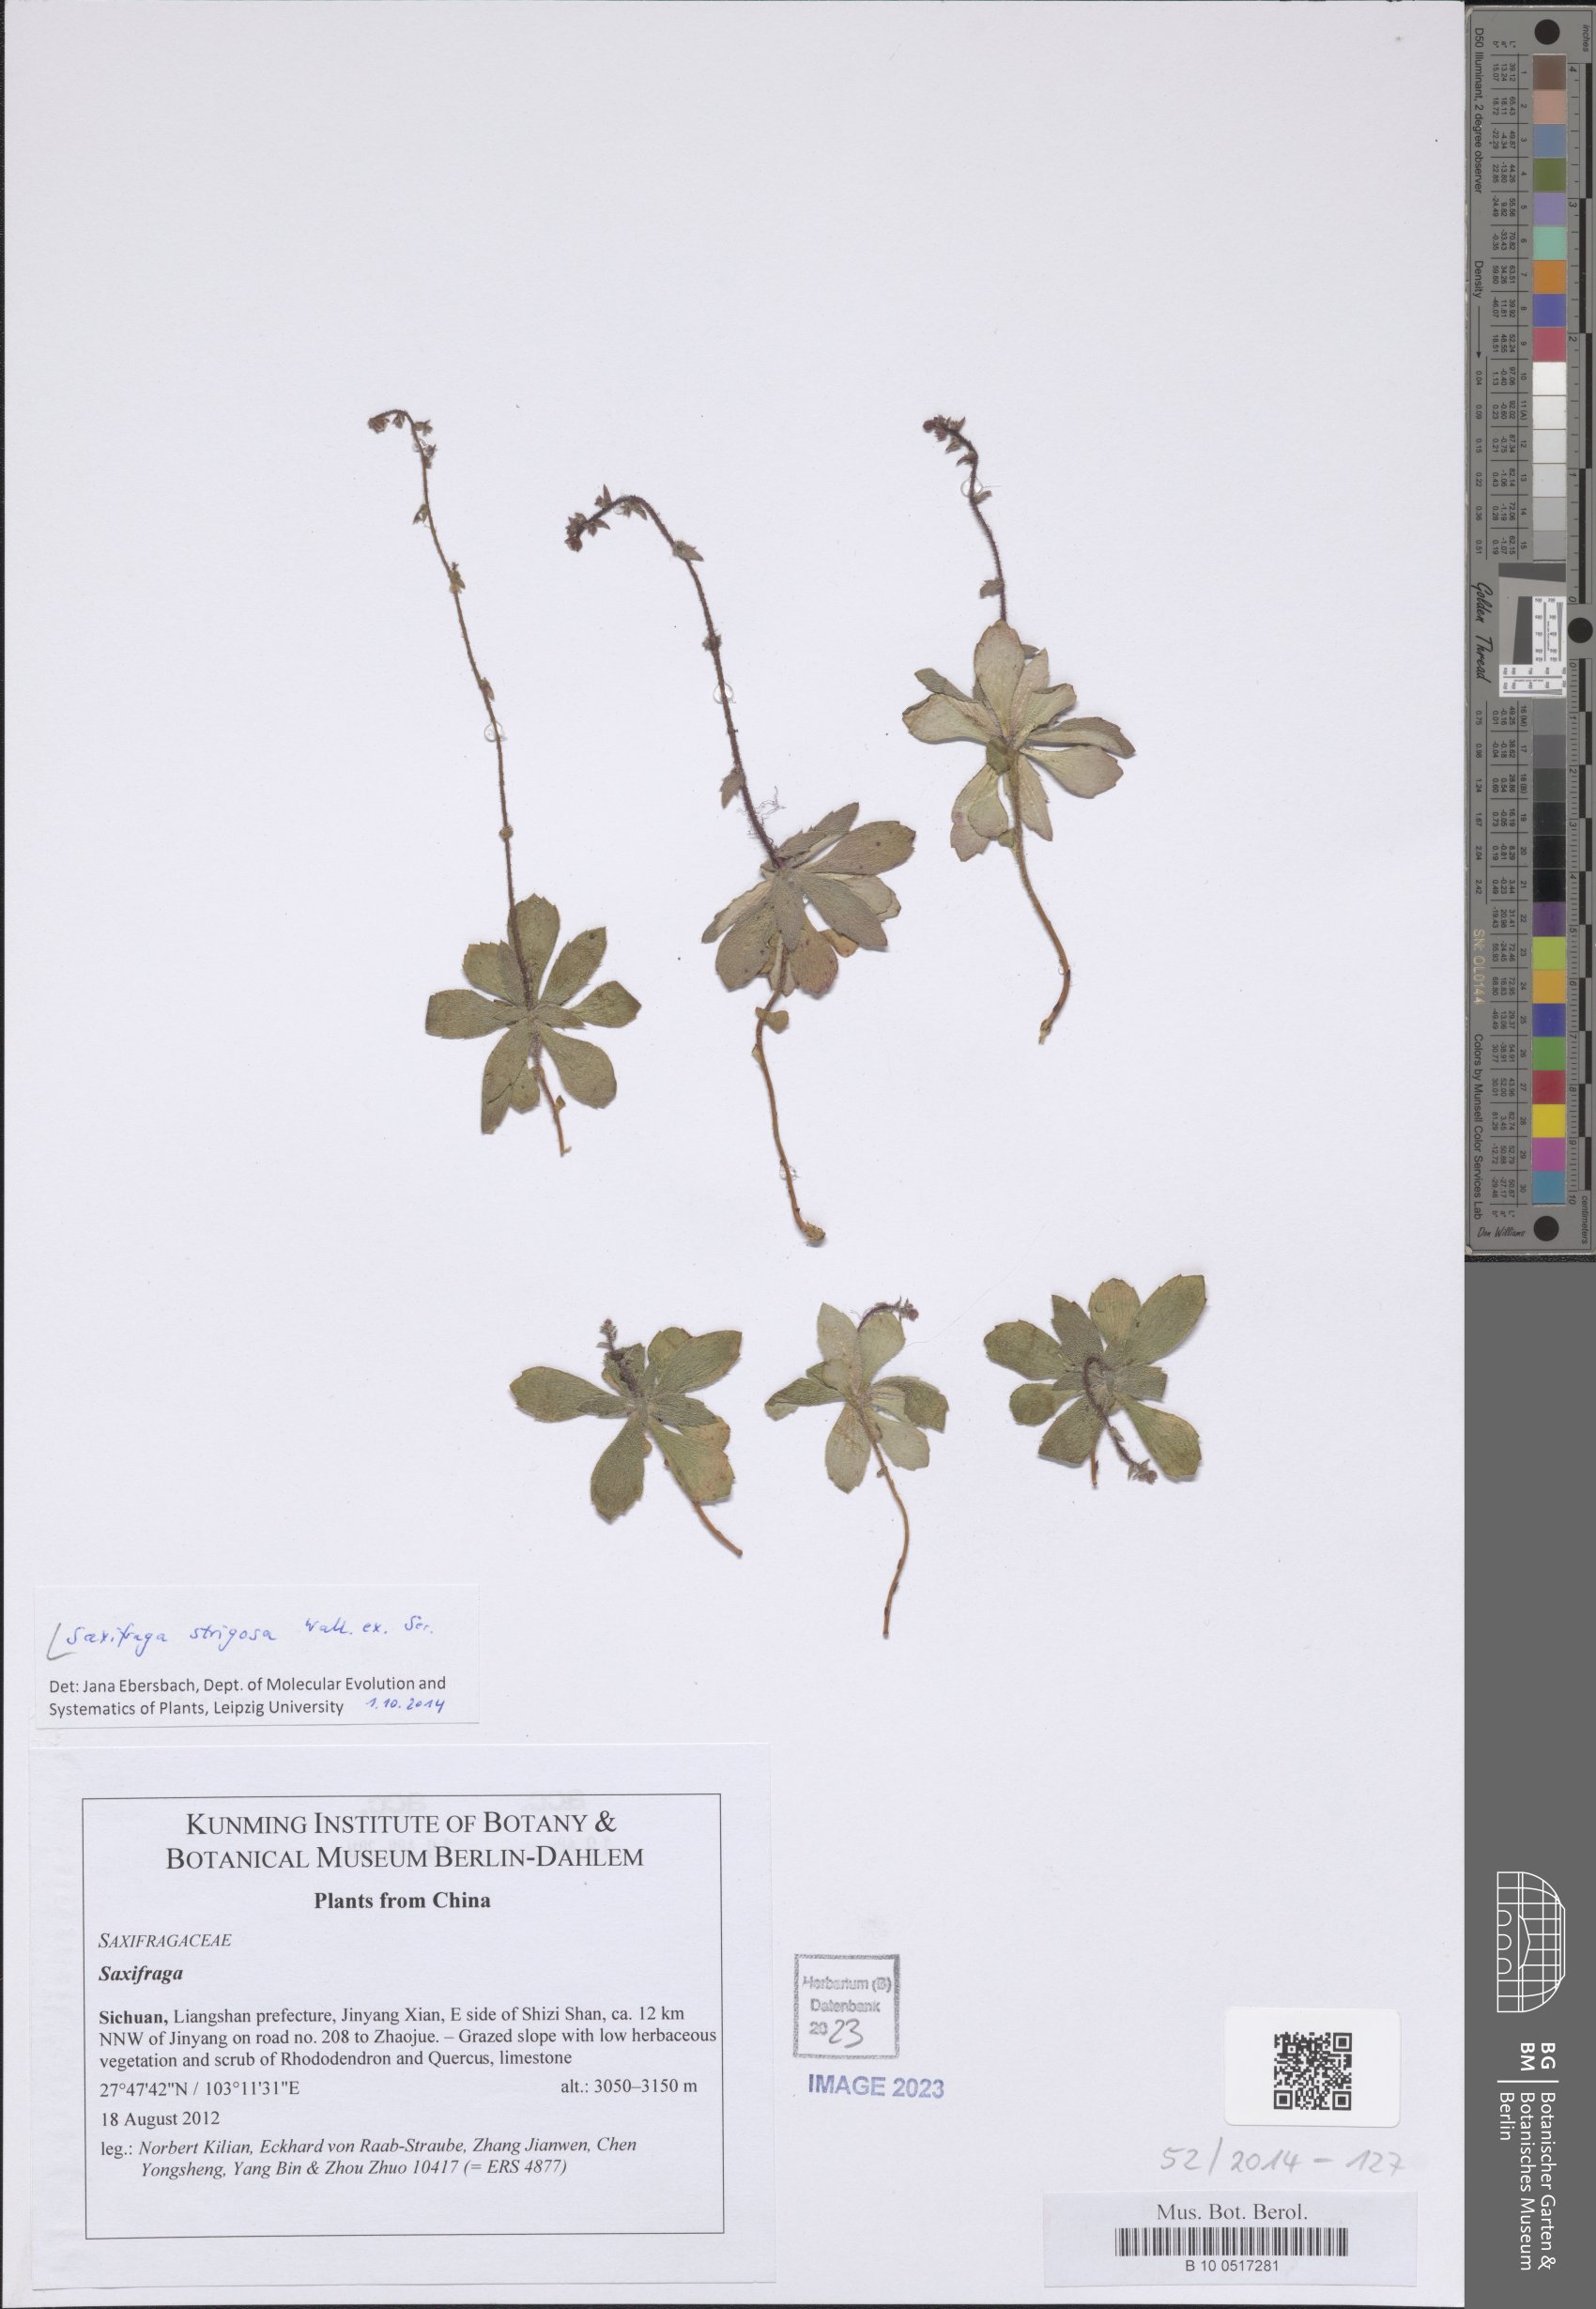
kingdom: Plantae
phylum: Tracheophyta
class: Magnoliopsida
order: Saxifragales
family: Saxifragaceae
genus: Saxifraga
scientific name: Saxifraga strigosa
